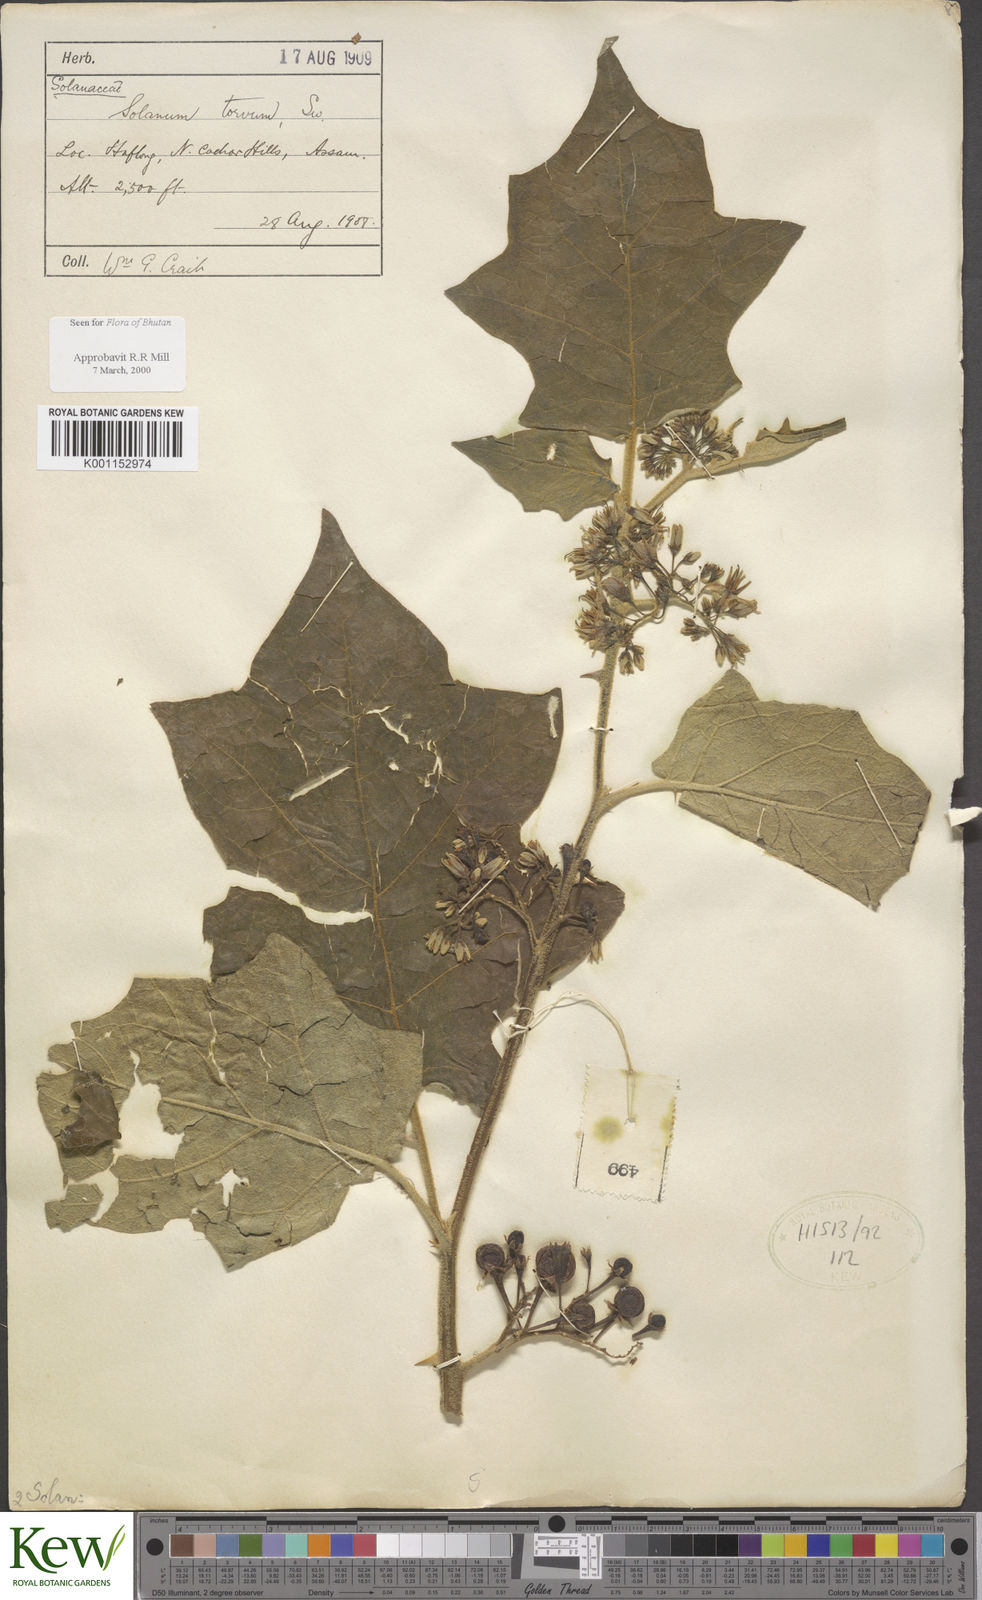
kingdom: Plantae
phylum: Tracheophyta
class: Magnoliopsida
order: Solanales
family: Solanaceae
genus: Solanum
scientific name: Solanum torvum
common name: Turkey berry
